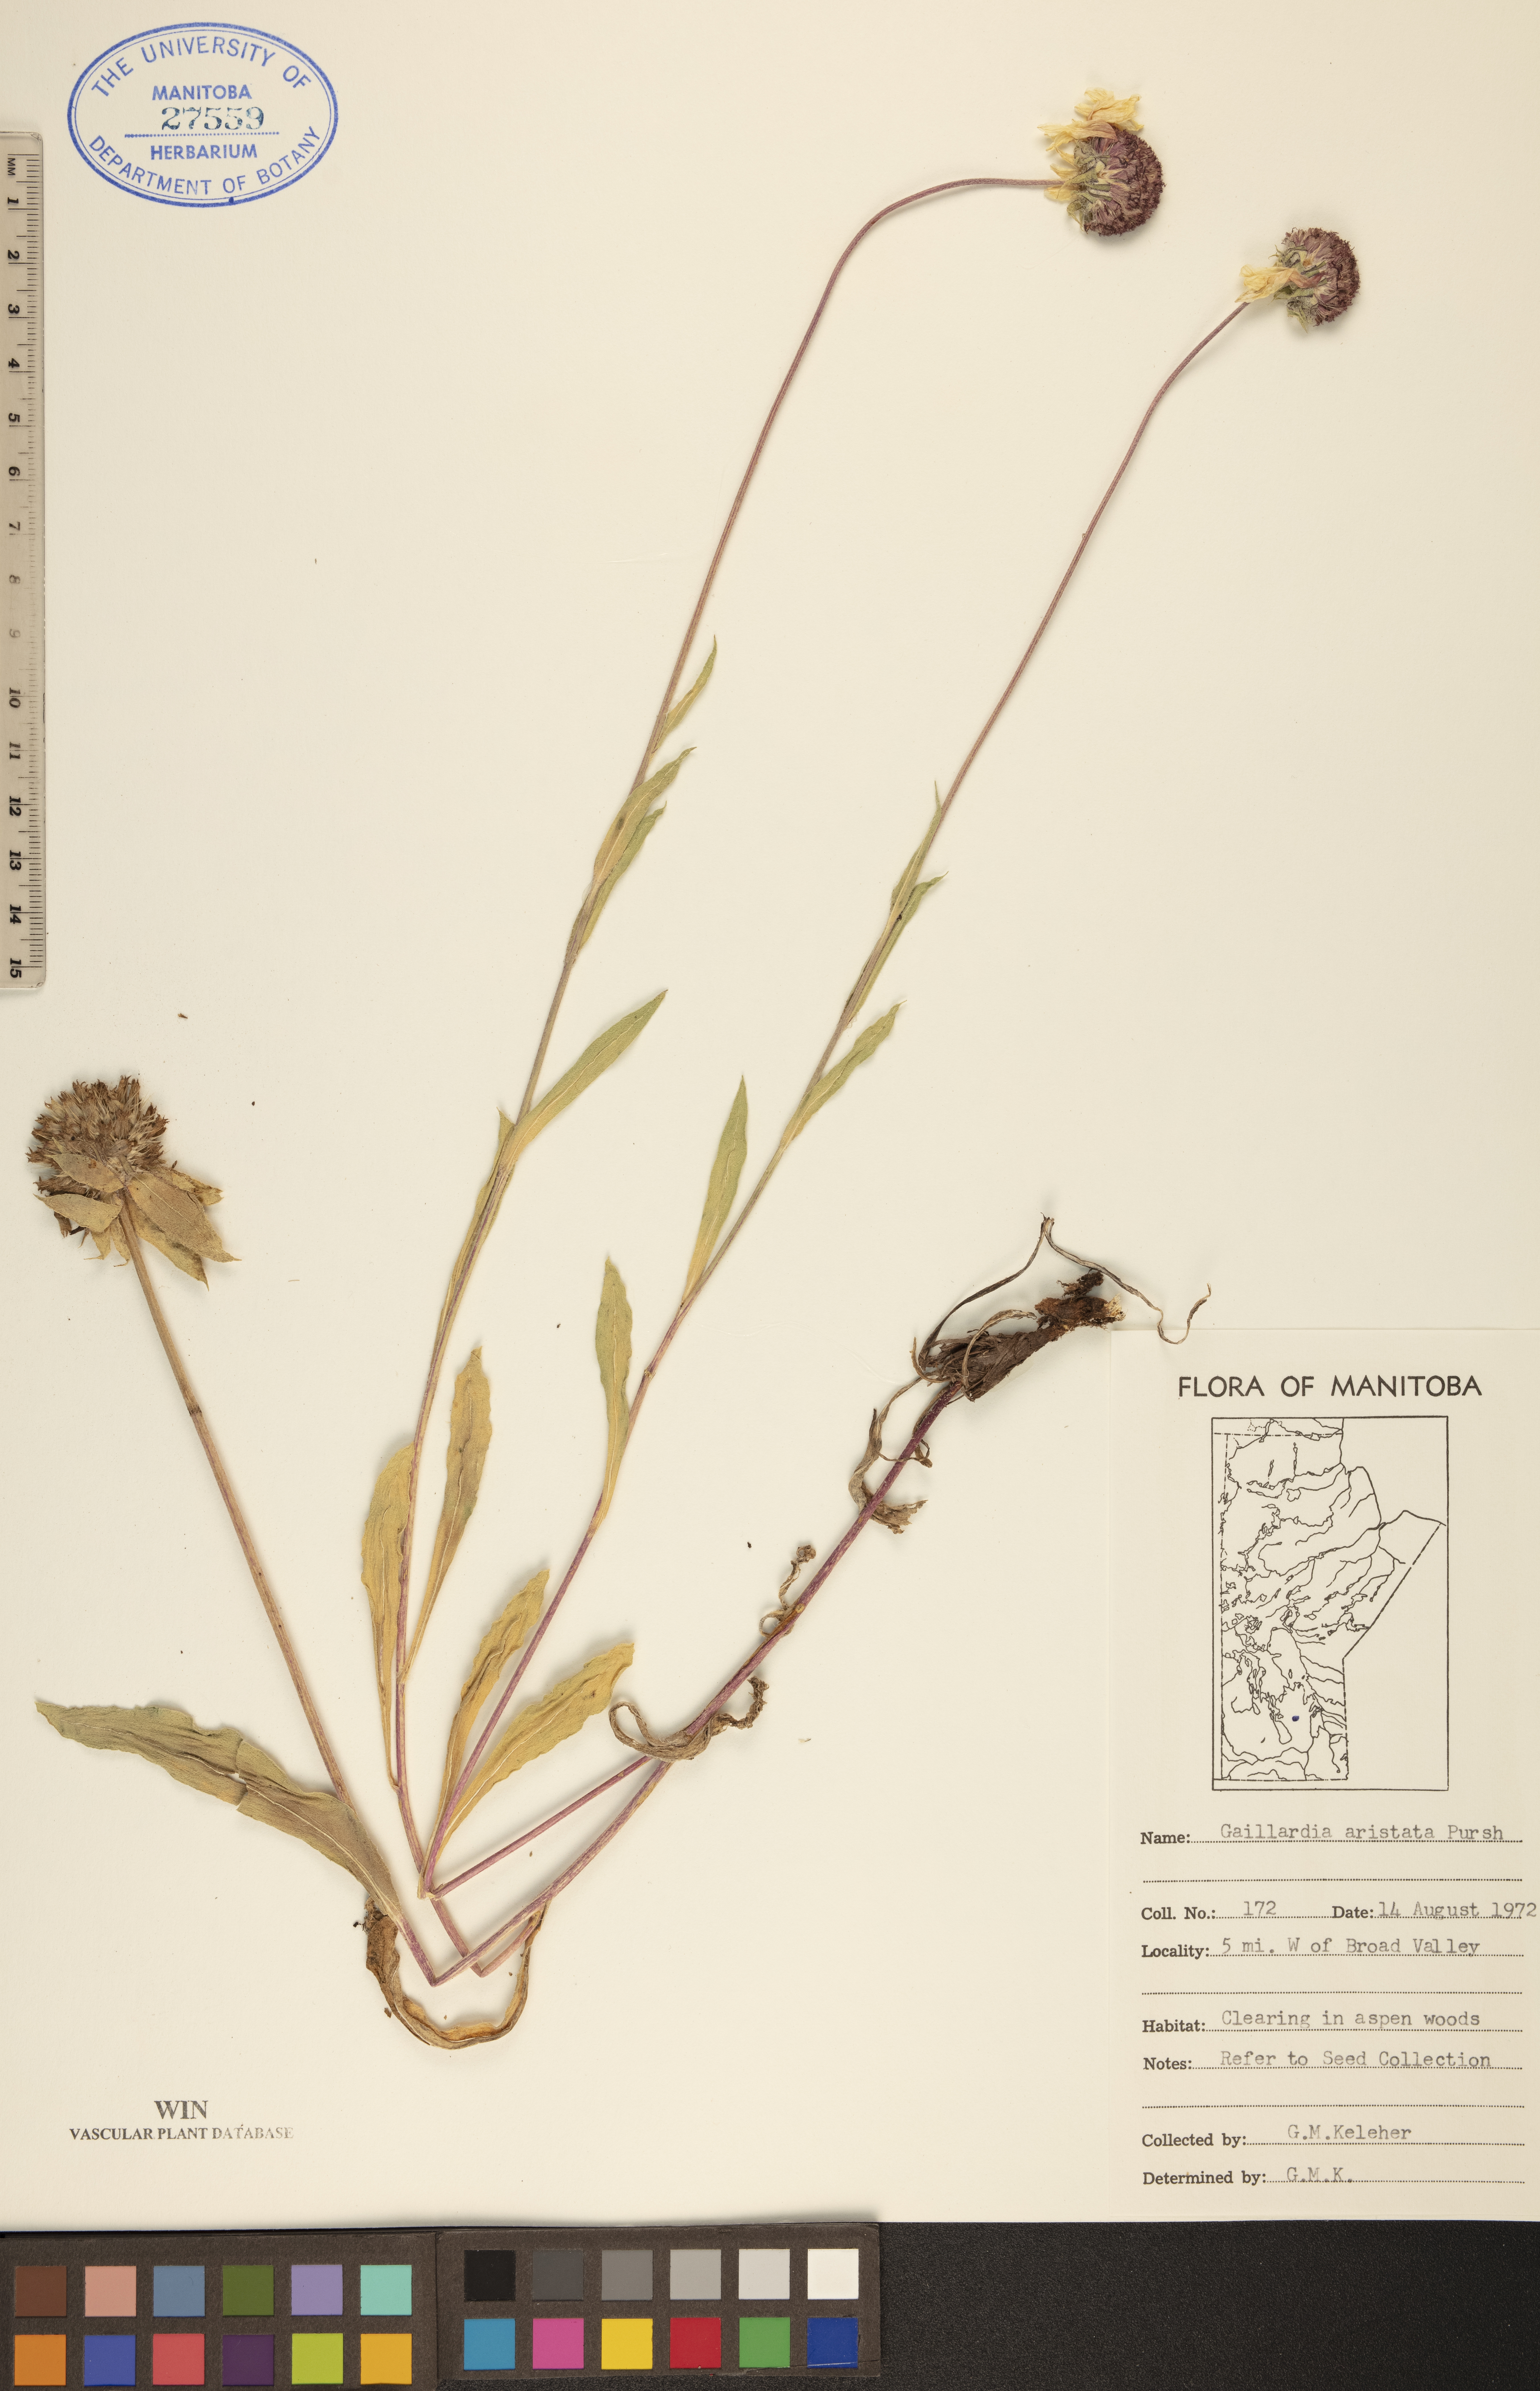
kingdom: Plantae
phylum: Tracheophyta
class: Magnoliopsida
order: Asterales
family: Asteraceae
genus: Gaillardia
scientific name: Gaillardia aristata
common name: Blanket-flower
